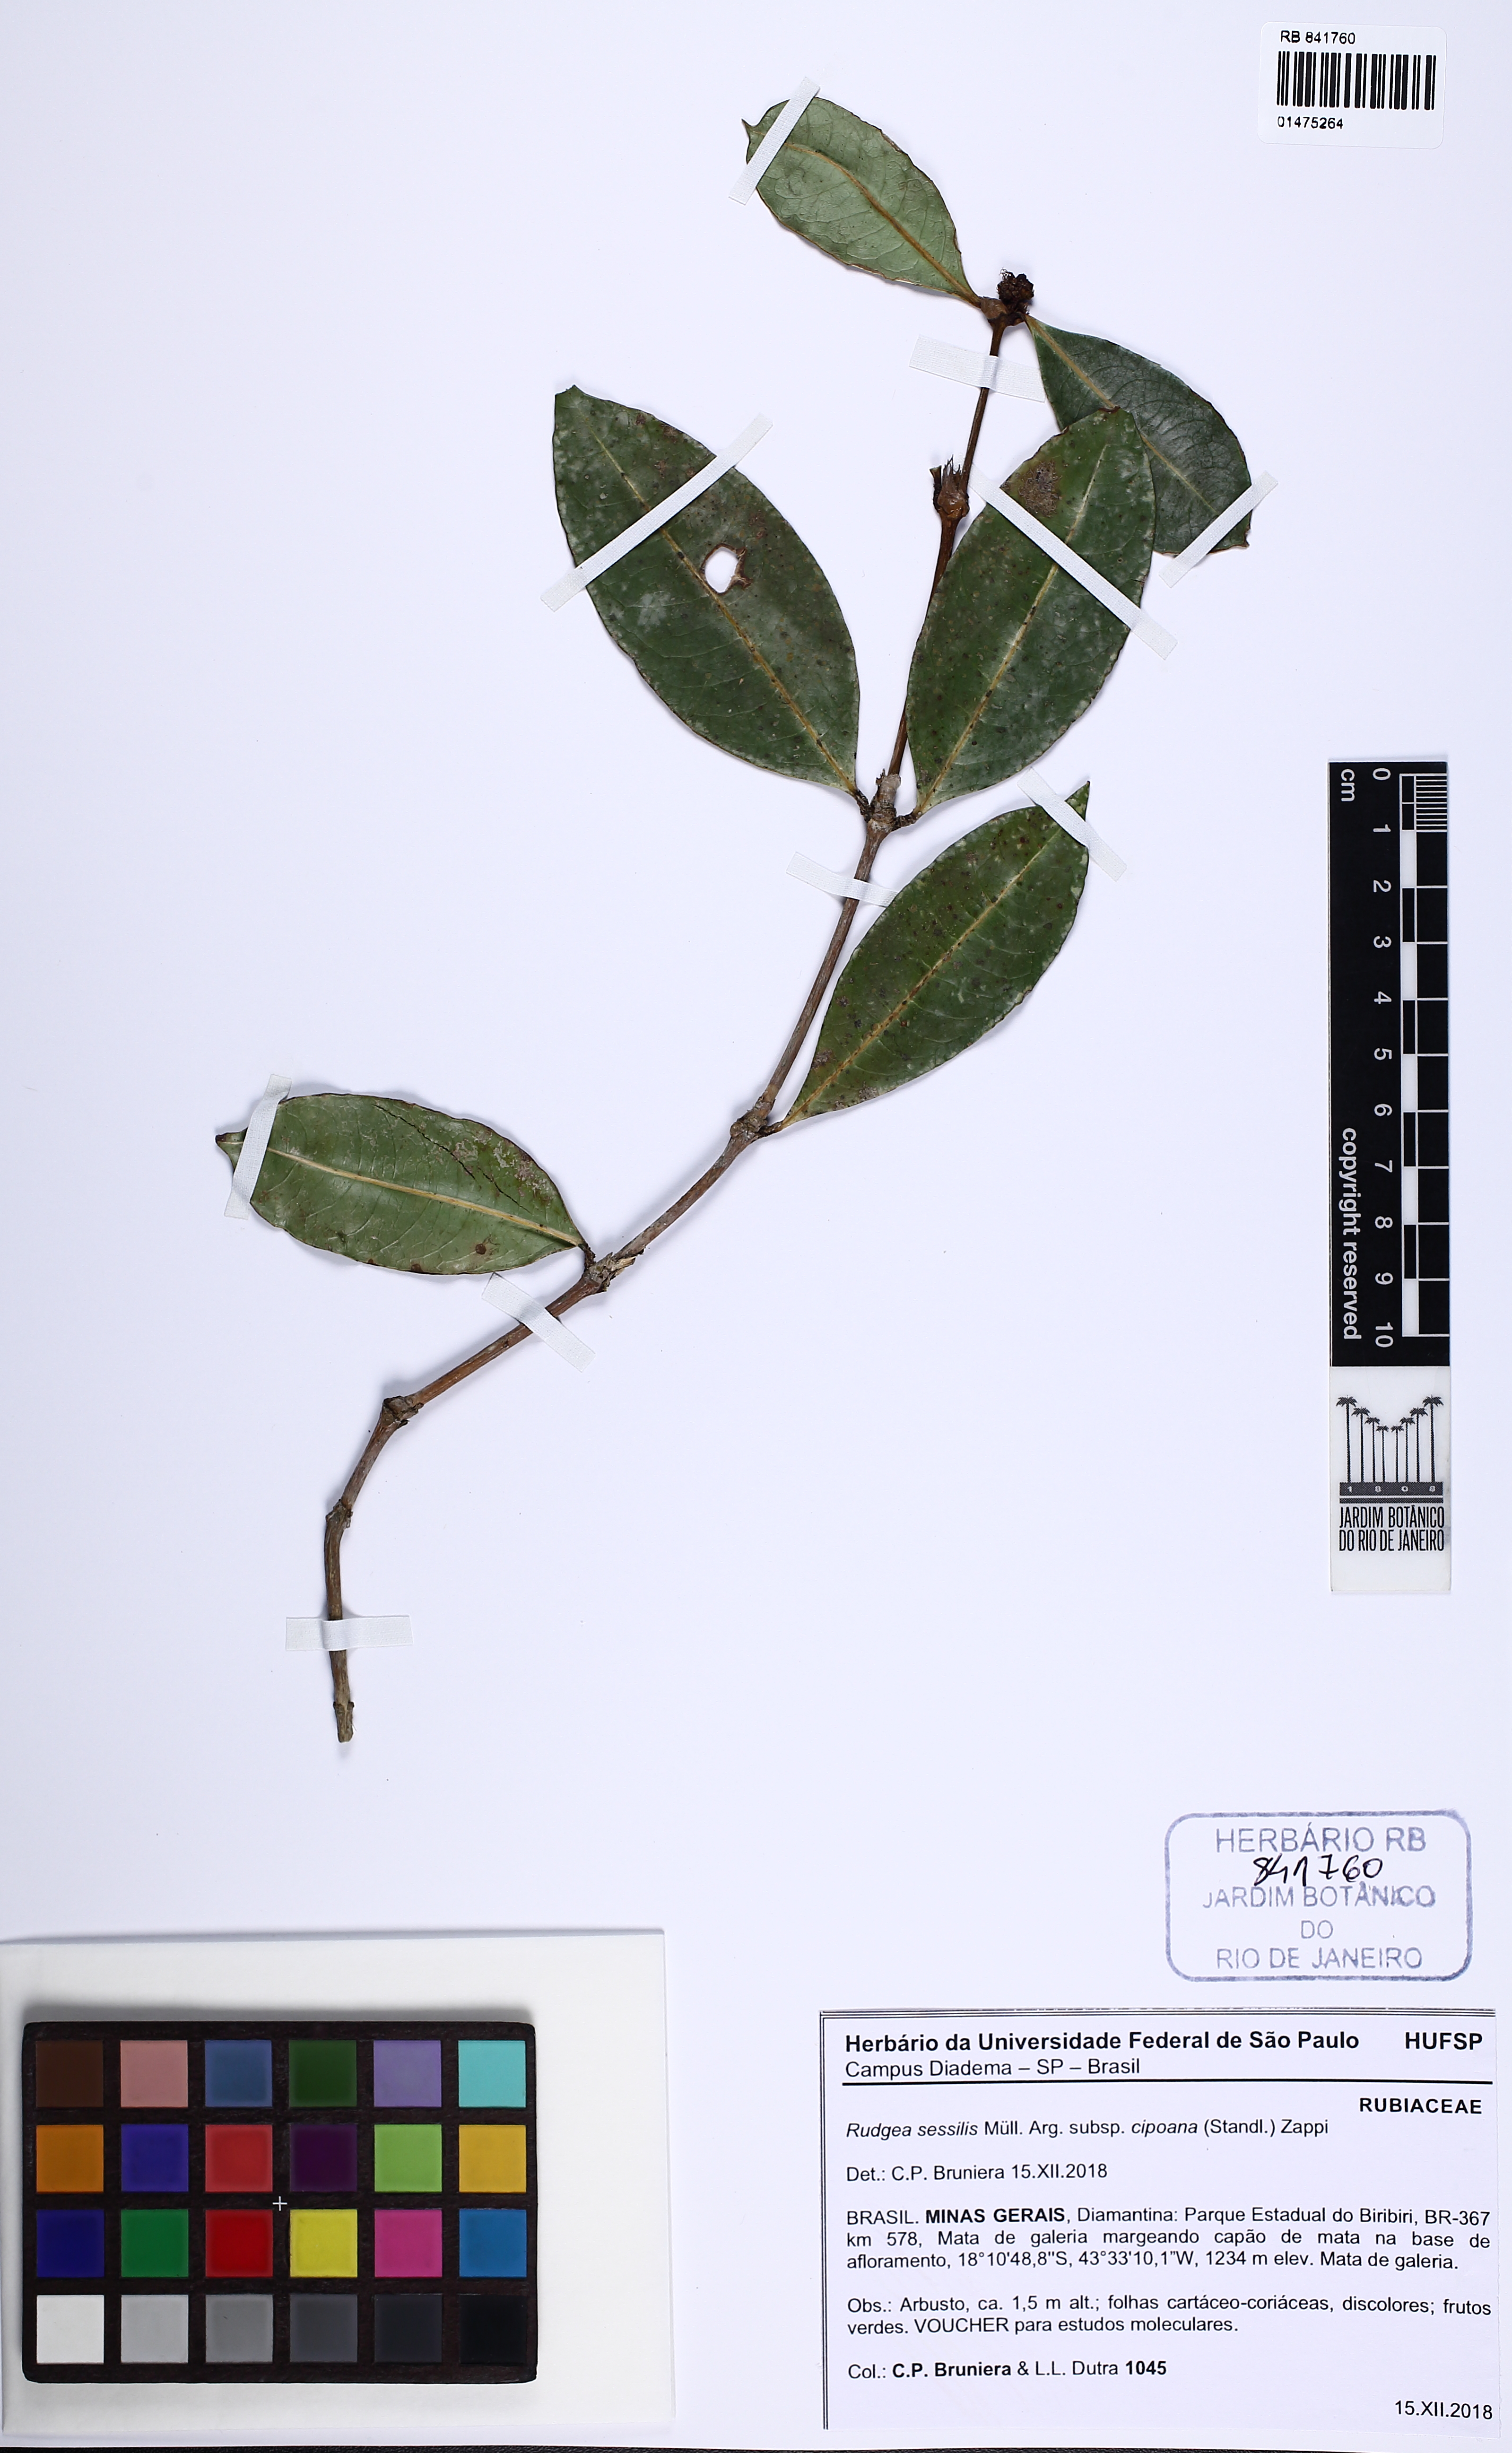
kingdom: Plantae
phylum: Tracheophyta
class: Magnoliopsida
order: Gentianales
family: Rubiaceae
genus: Rudgea
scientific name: Rudgea sessilis
